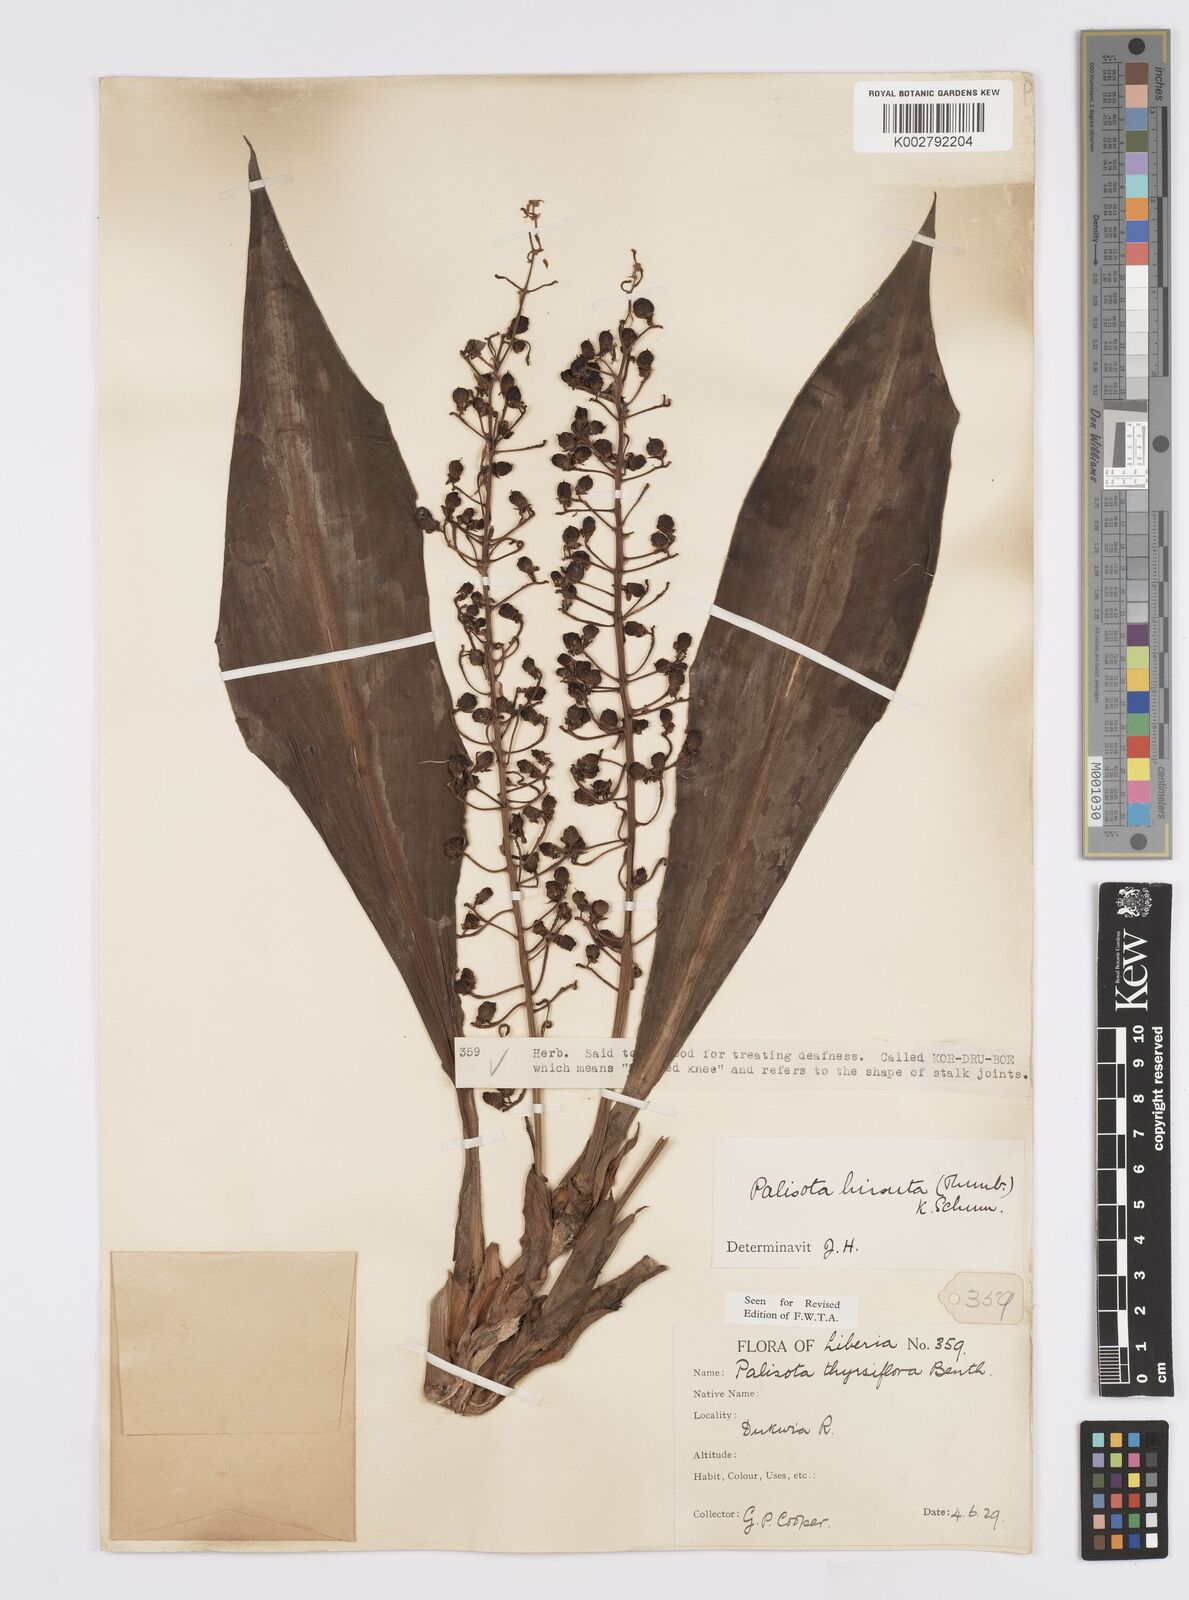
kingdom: Plantae
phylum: Tracheophyta
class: Liliopsida
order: Commelinales
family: Commelinaceae
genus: Palisota
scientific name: Palisota hirsuta
